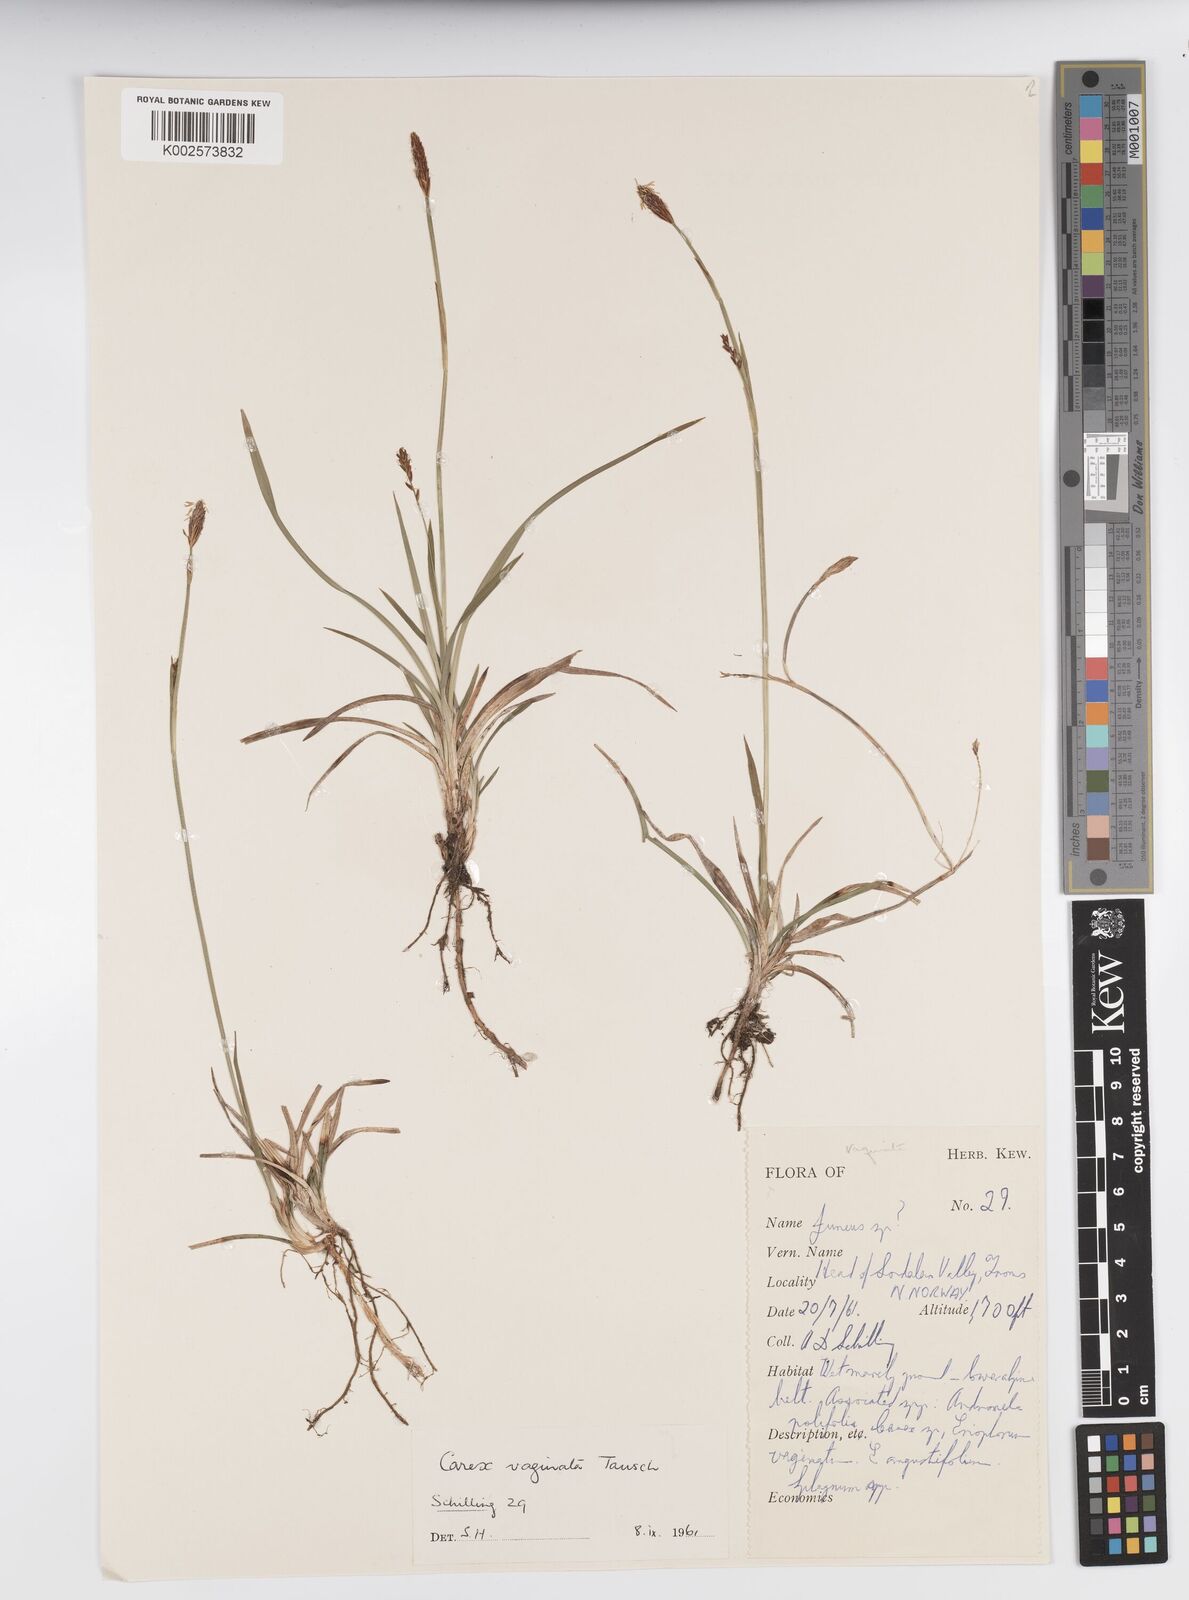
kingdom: Plantae
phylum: Tracheophyta
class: Liliopsida
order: Poales
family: Cyperaceae
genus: Carex
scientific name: Carex vaginata
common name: Sheathed sedge
